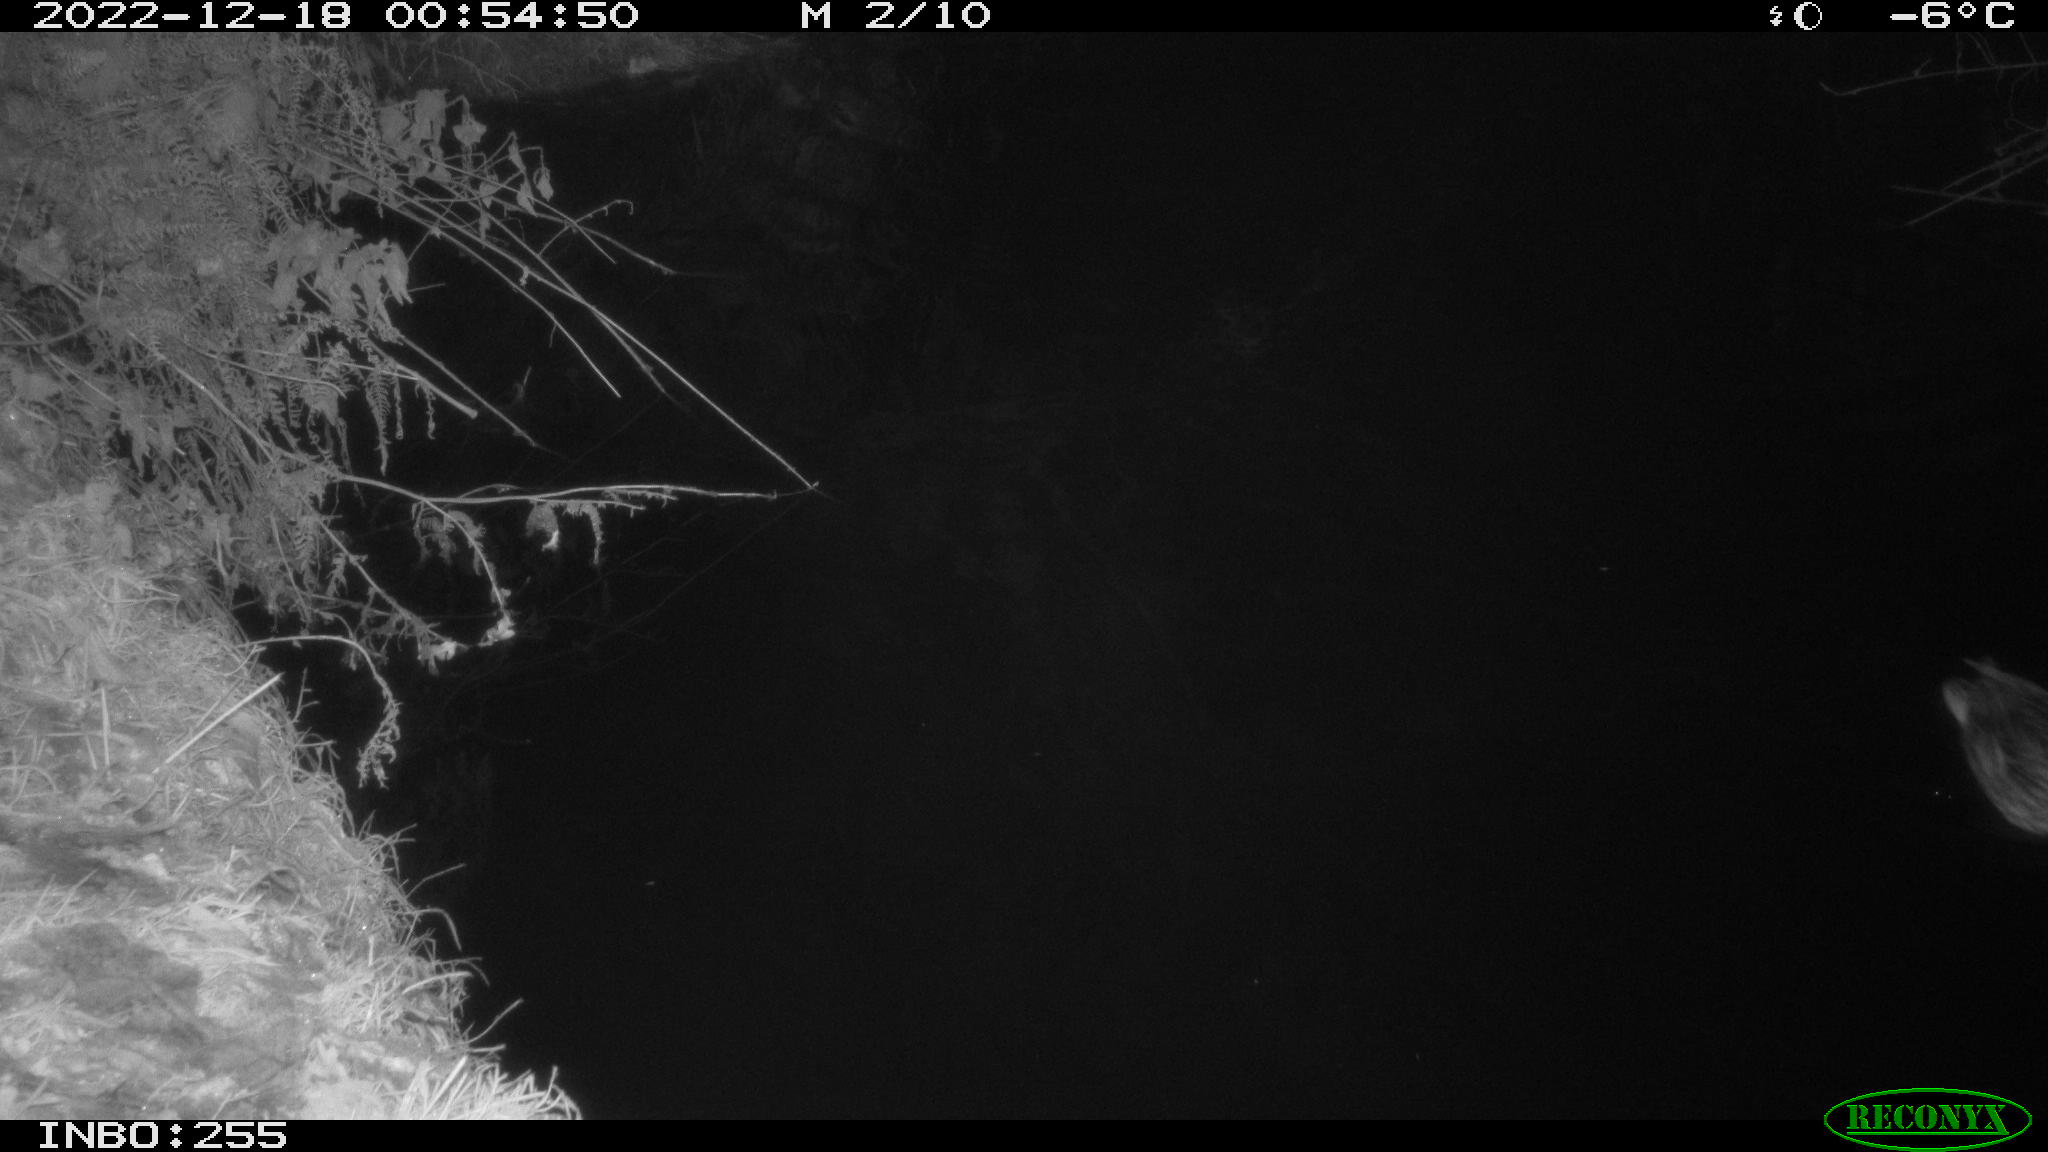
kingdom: Animalia
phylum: Chordata
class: Aves
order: Anseriformes
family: Anatidae
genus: Anas
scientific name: Anas
